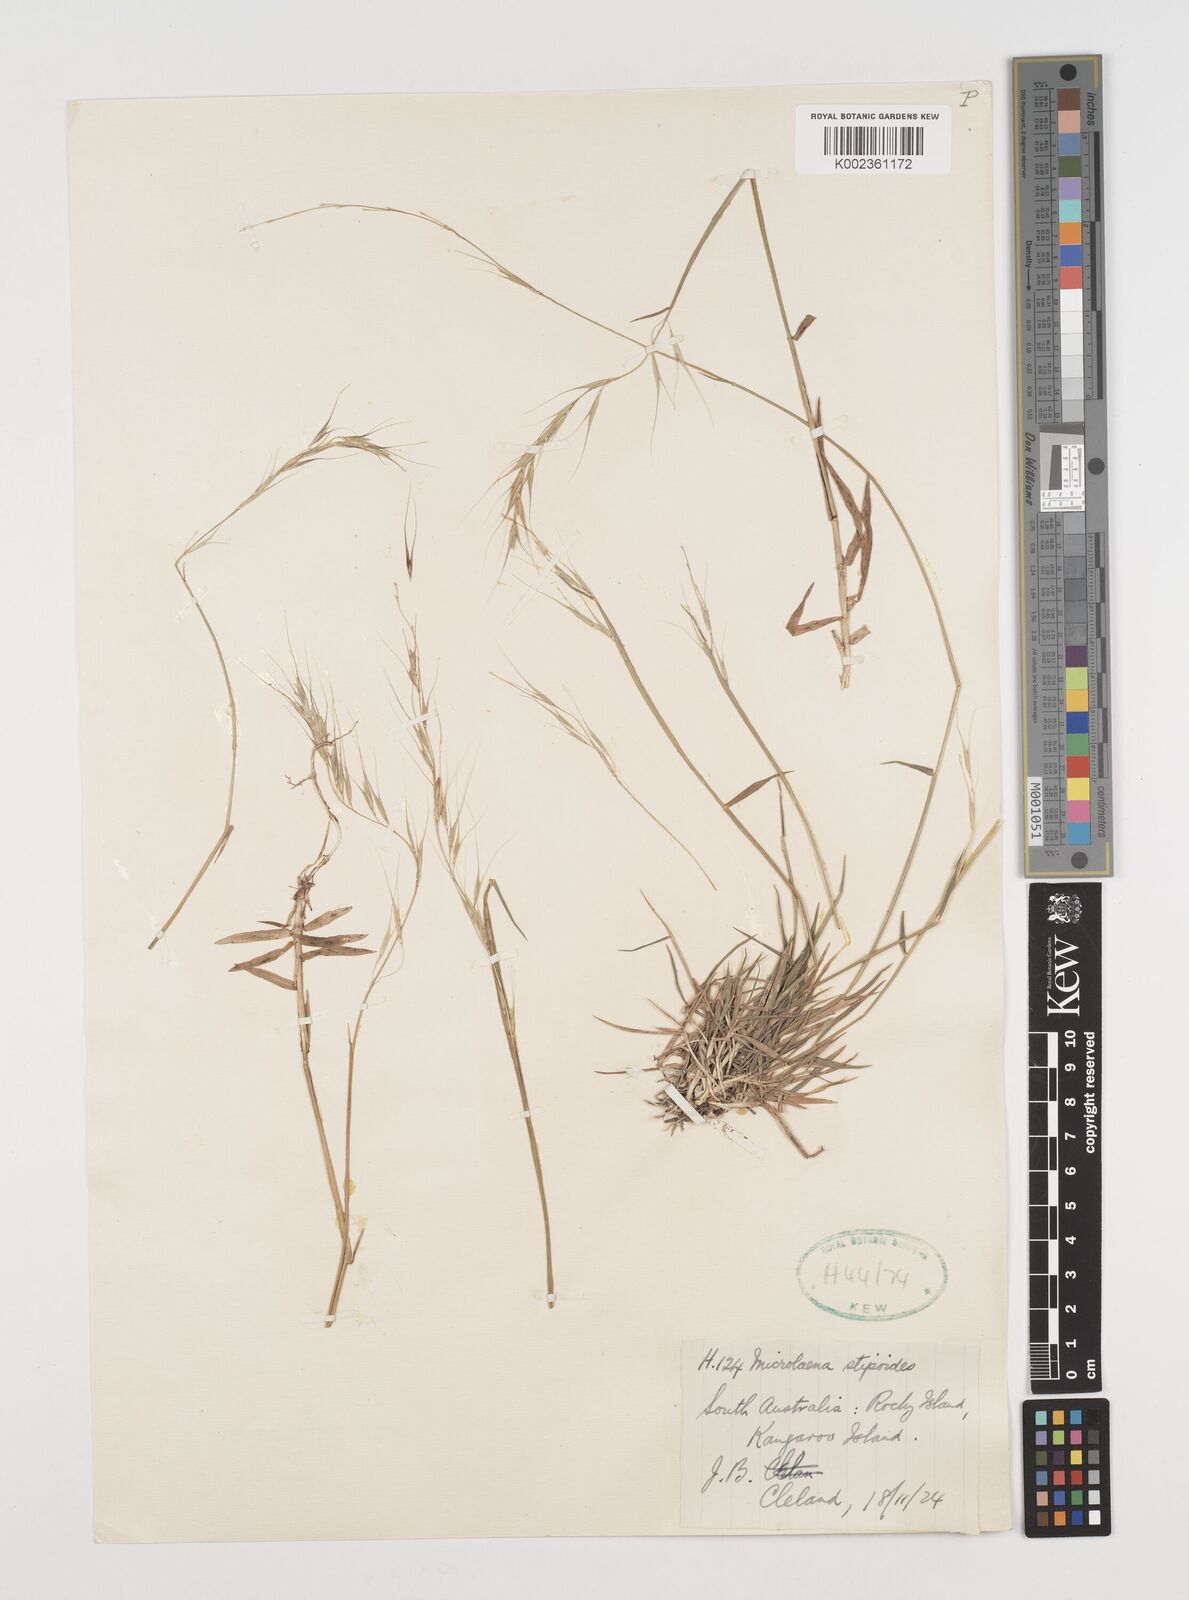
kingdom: Plantae
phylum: Tracheophyta
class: Liliopsida
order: Poales
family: Poaceae
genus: Microlaena
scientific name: Microlaena stipoides
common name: Meadow ricegrass
